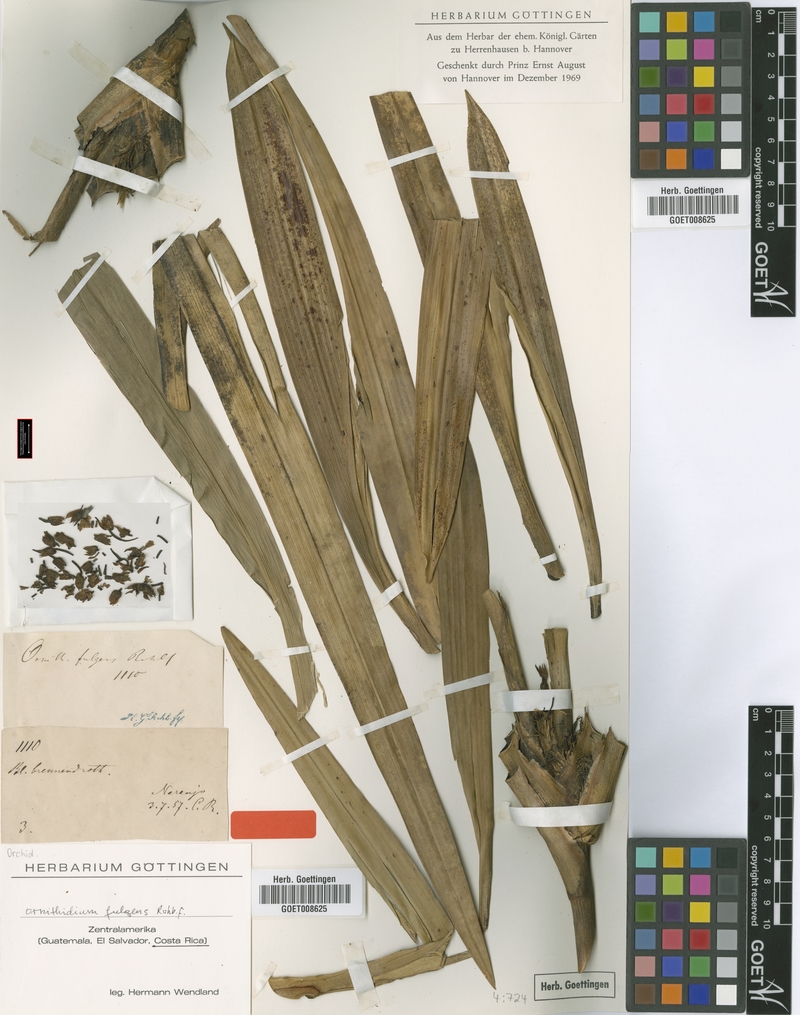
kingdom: Plantae
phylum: Tracheophyta
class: Liliopsida
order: Asparagales
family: Orchidaceae
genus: Maxillaria
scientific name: Maxillaria fulgens
